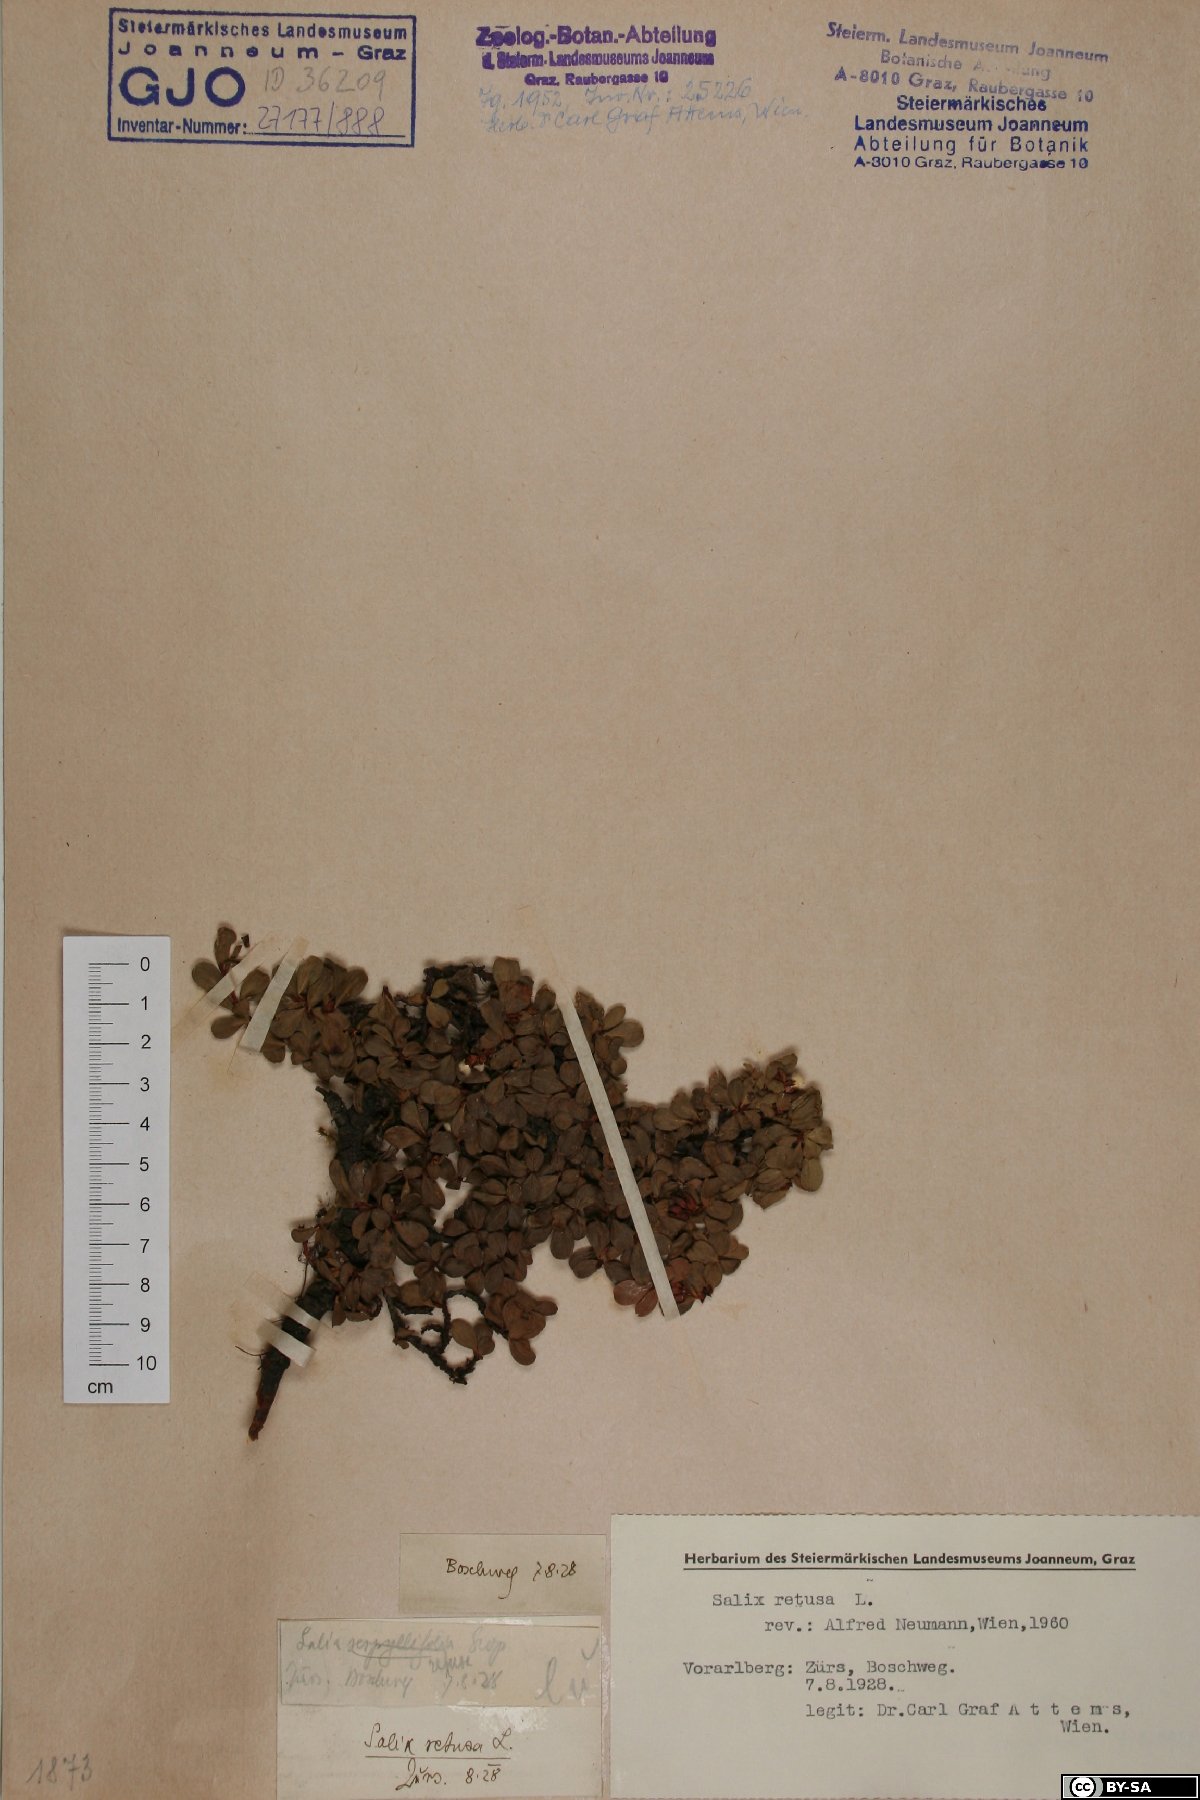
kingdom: Plantae
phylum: Tracheophyta
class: Magnoliopsida
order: Malpighiales
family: Salicaceae
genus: Salix
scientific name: Salix retusa
